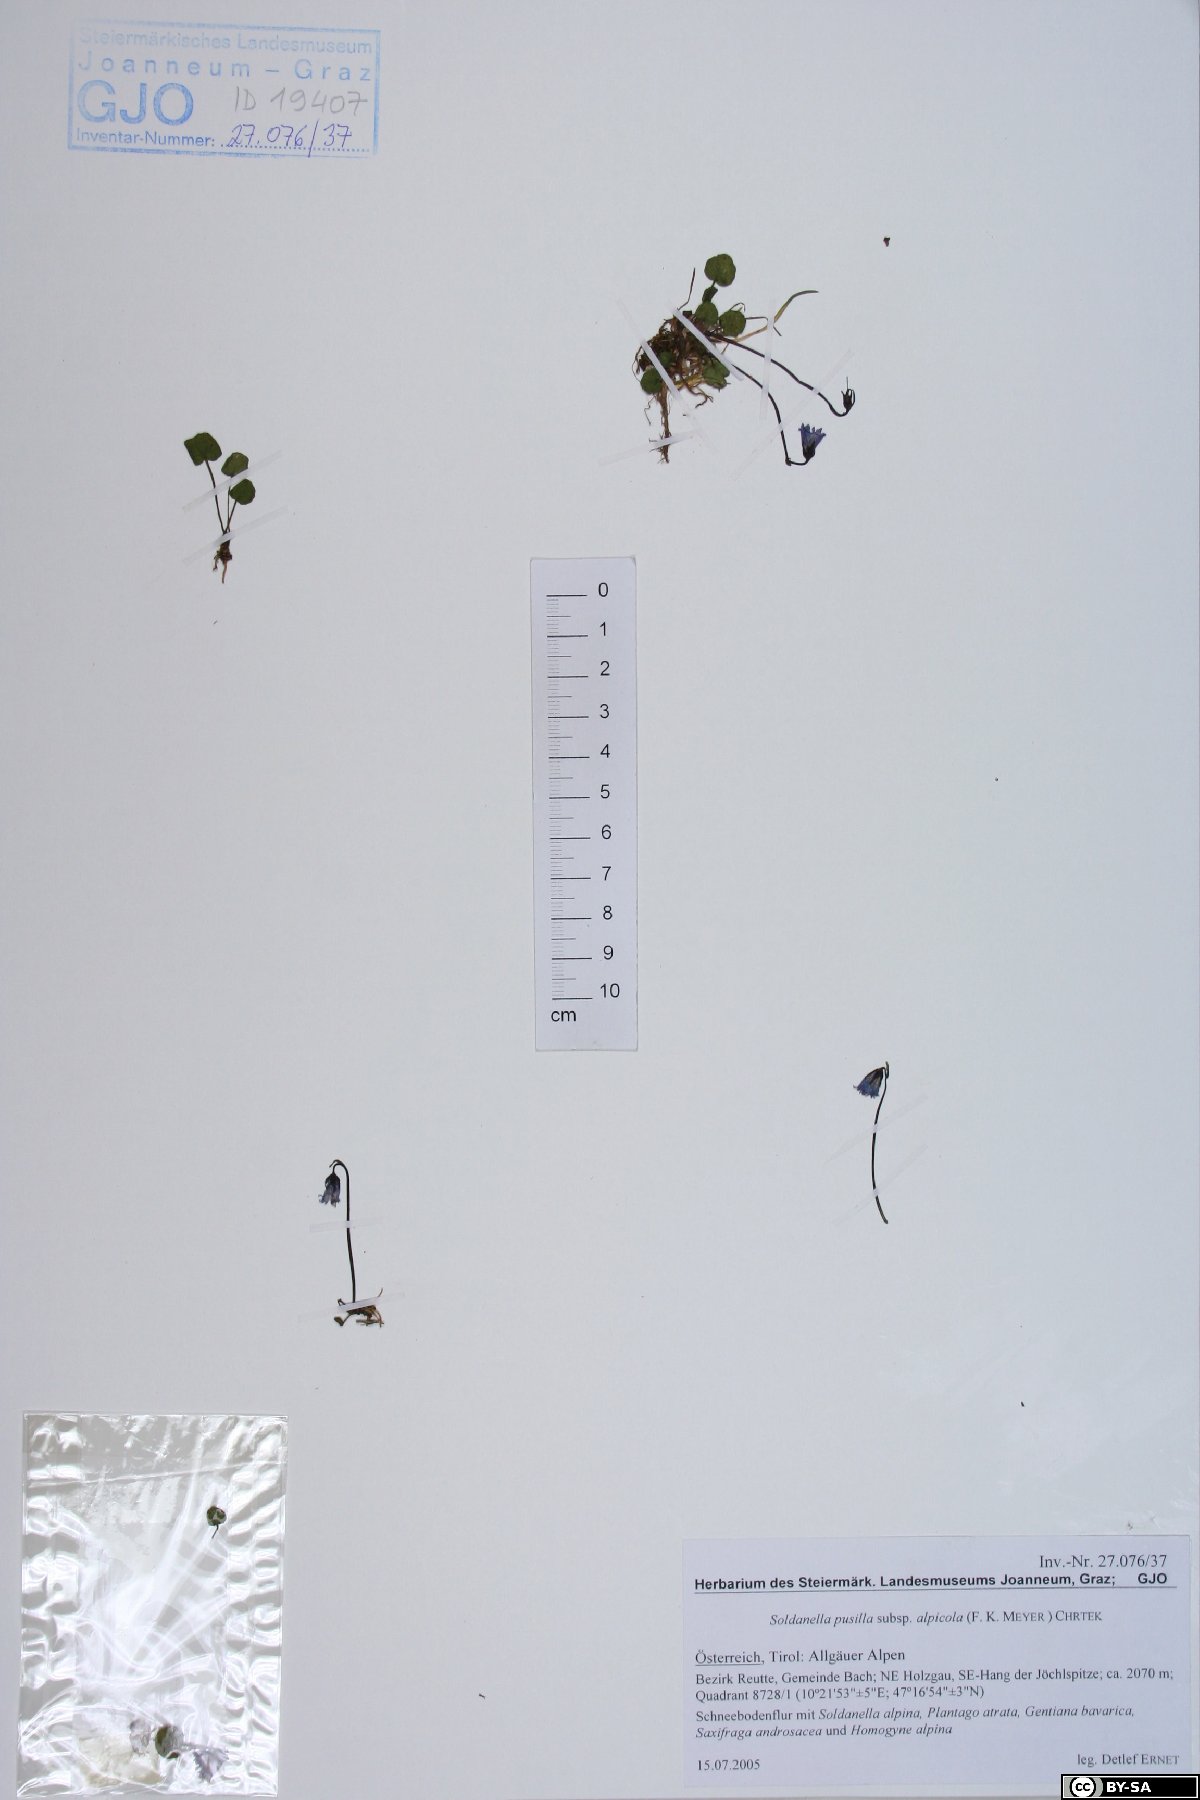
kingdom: Plantae
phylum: Tracheophyta
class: Magnoliopsida
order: Ericales
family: Primulaceae
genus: Soldanella
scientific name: Soldanella alpicola
